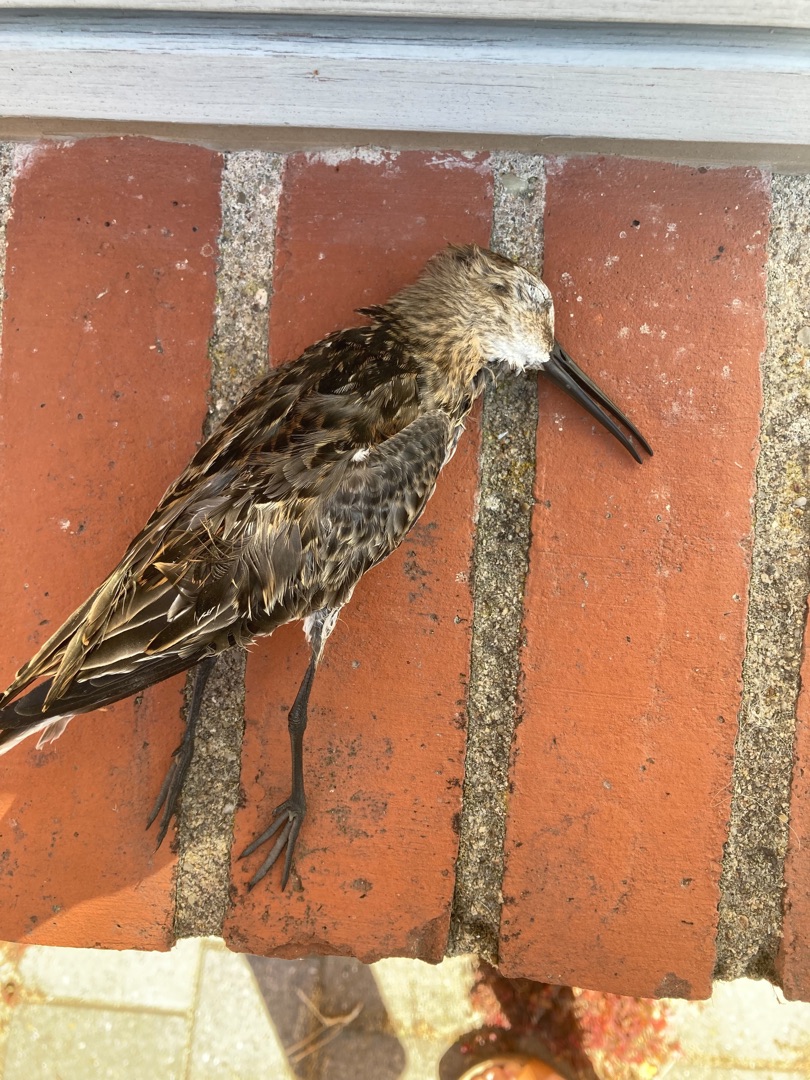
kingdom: Animalia
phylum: Chordata
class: Aves
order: Charadriiformes
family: Scolopacidae
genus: Calidris
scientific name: Calidris alpina
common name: Almindelig ryle
